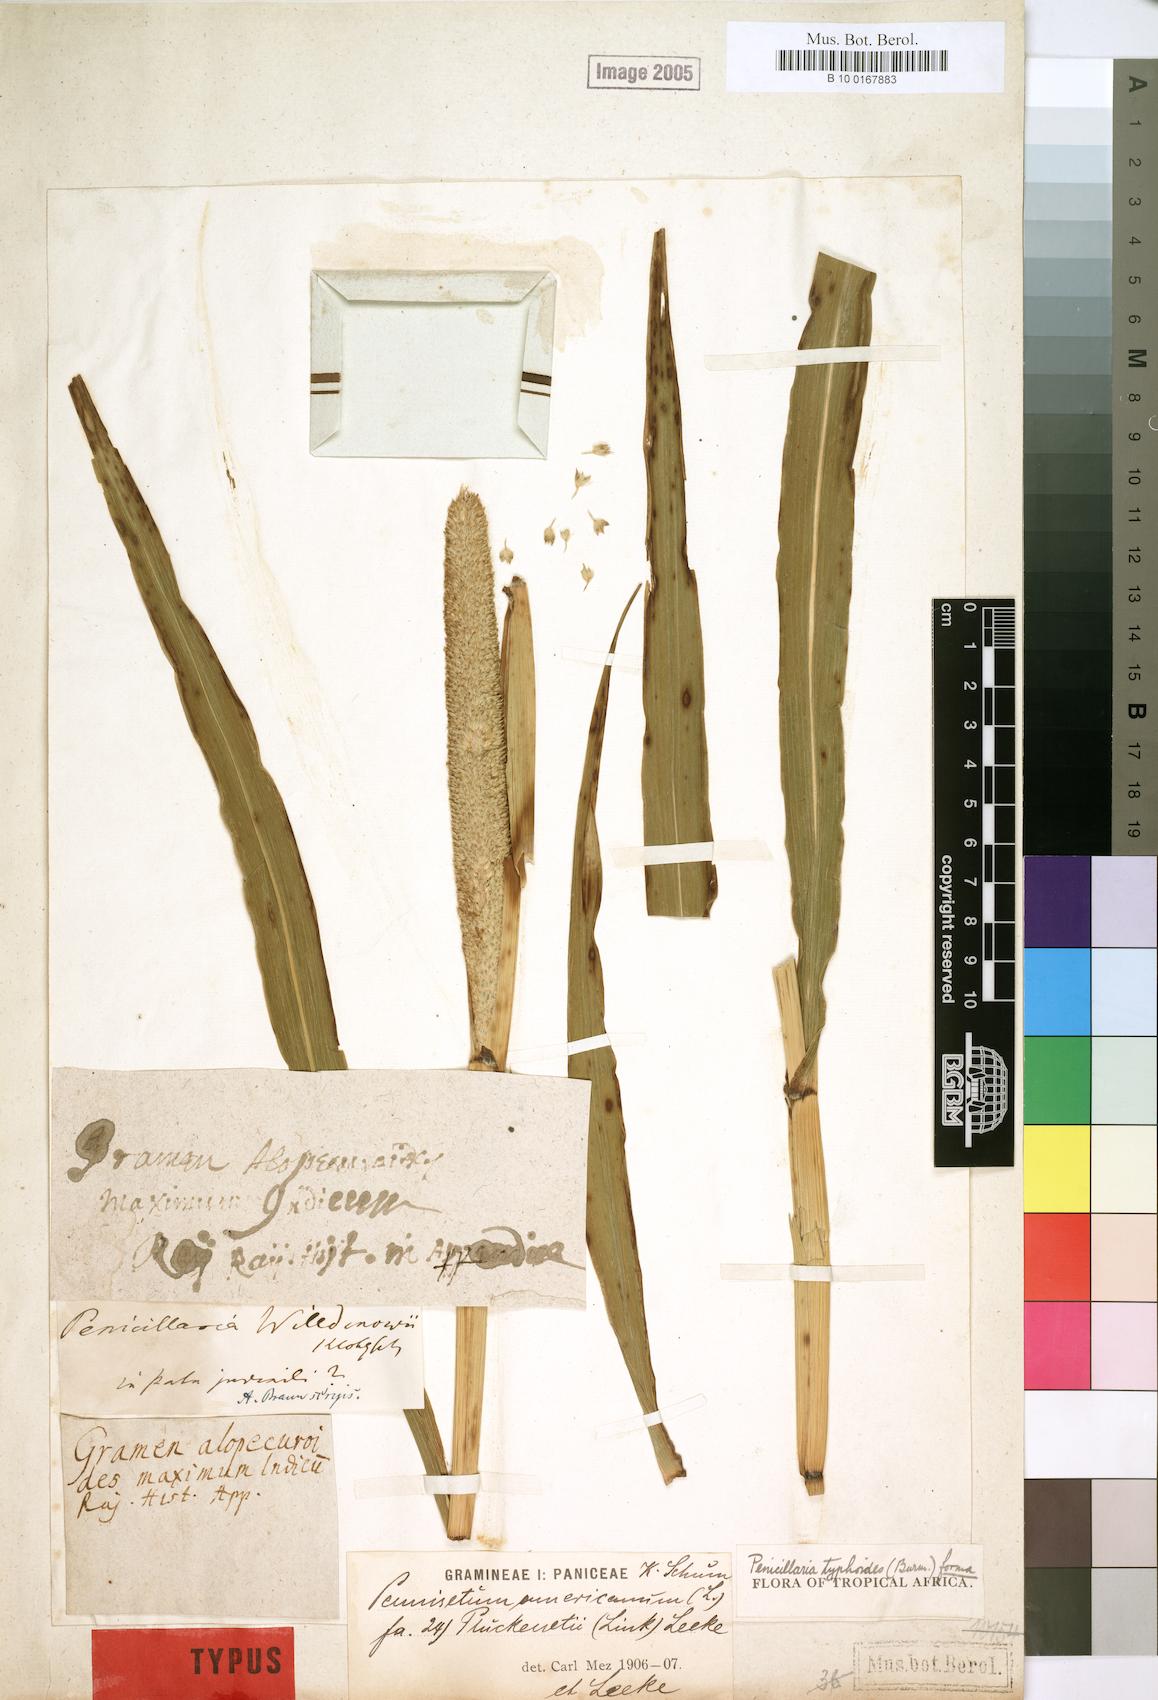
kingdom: Plantae
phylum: Tracheophyta
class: Liliopsida
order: Poales
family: Poaceae
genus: Cenchrus
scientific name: Cenchrus americanus
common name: Pearl millet
